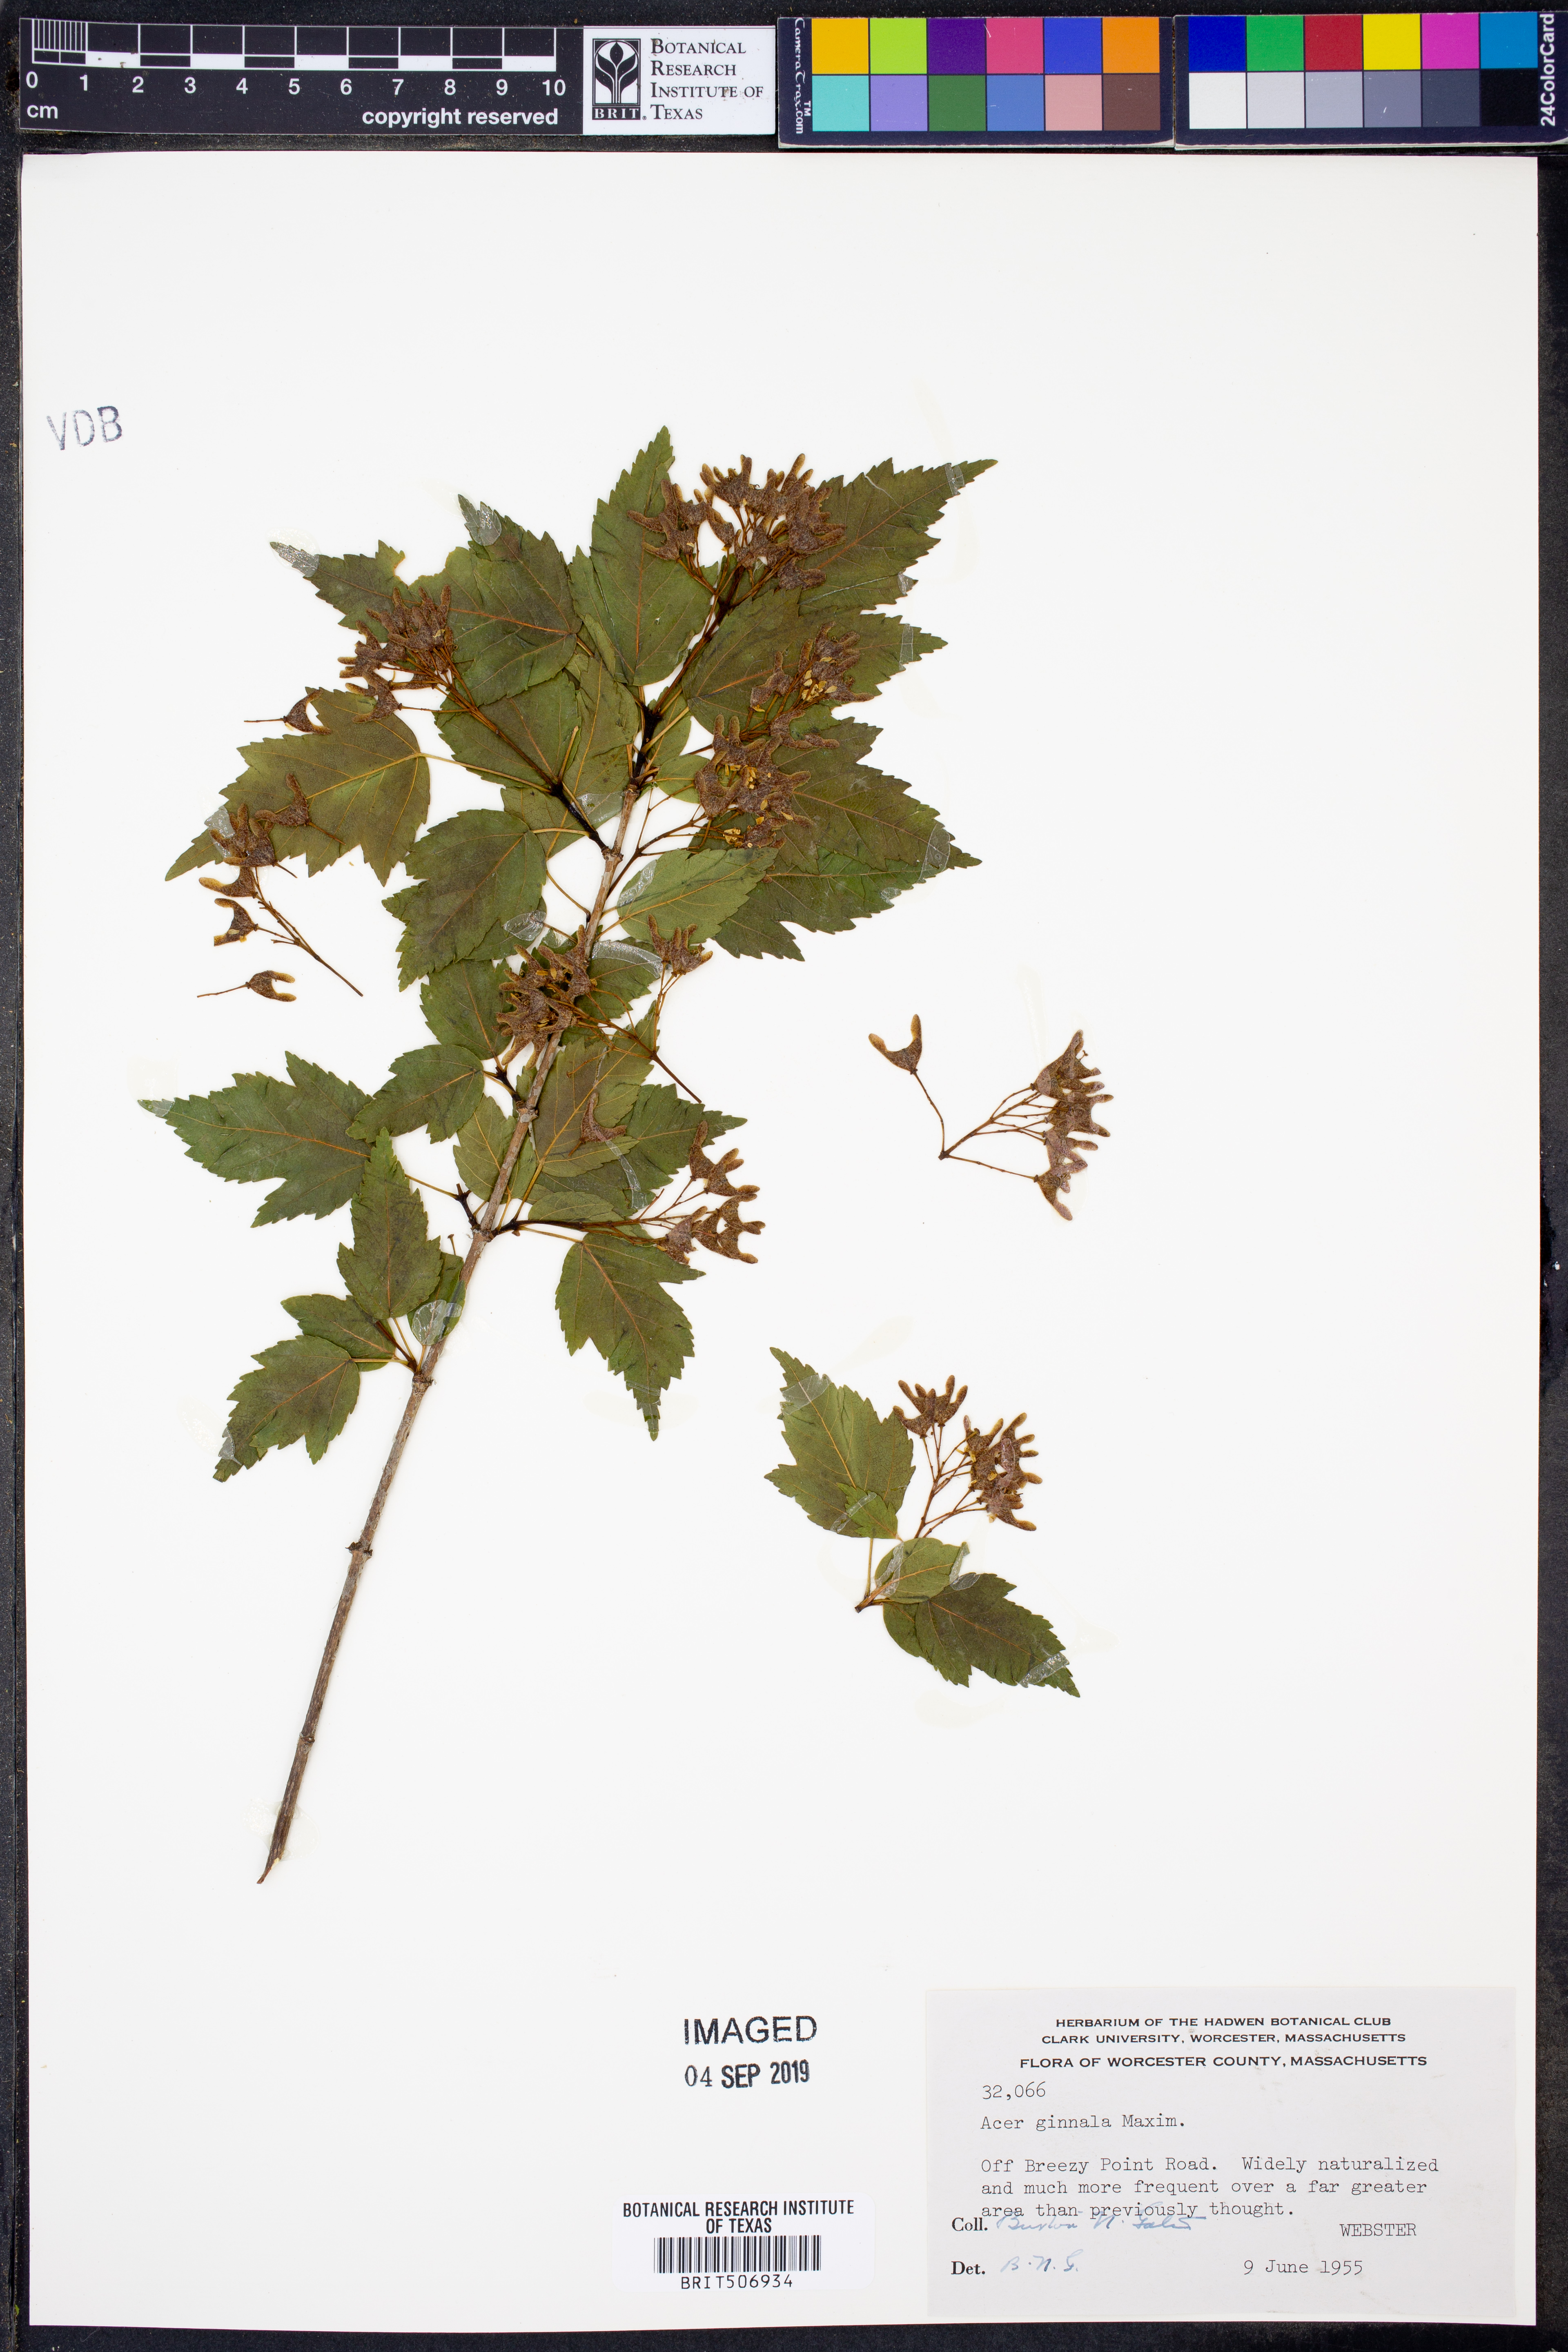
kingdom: Plantae
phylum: Tracheophyta
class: Magnoliopsida
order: Sapindales
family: Sapindaceae
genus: Acer
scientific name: Acer tataricum
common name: Tartar maple
